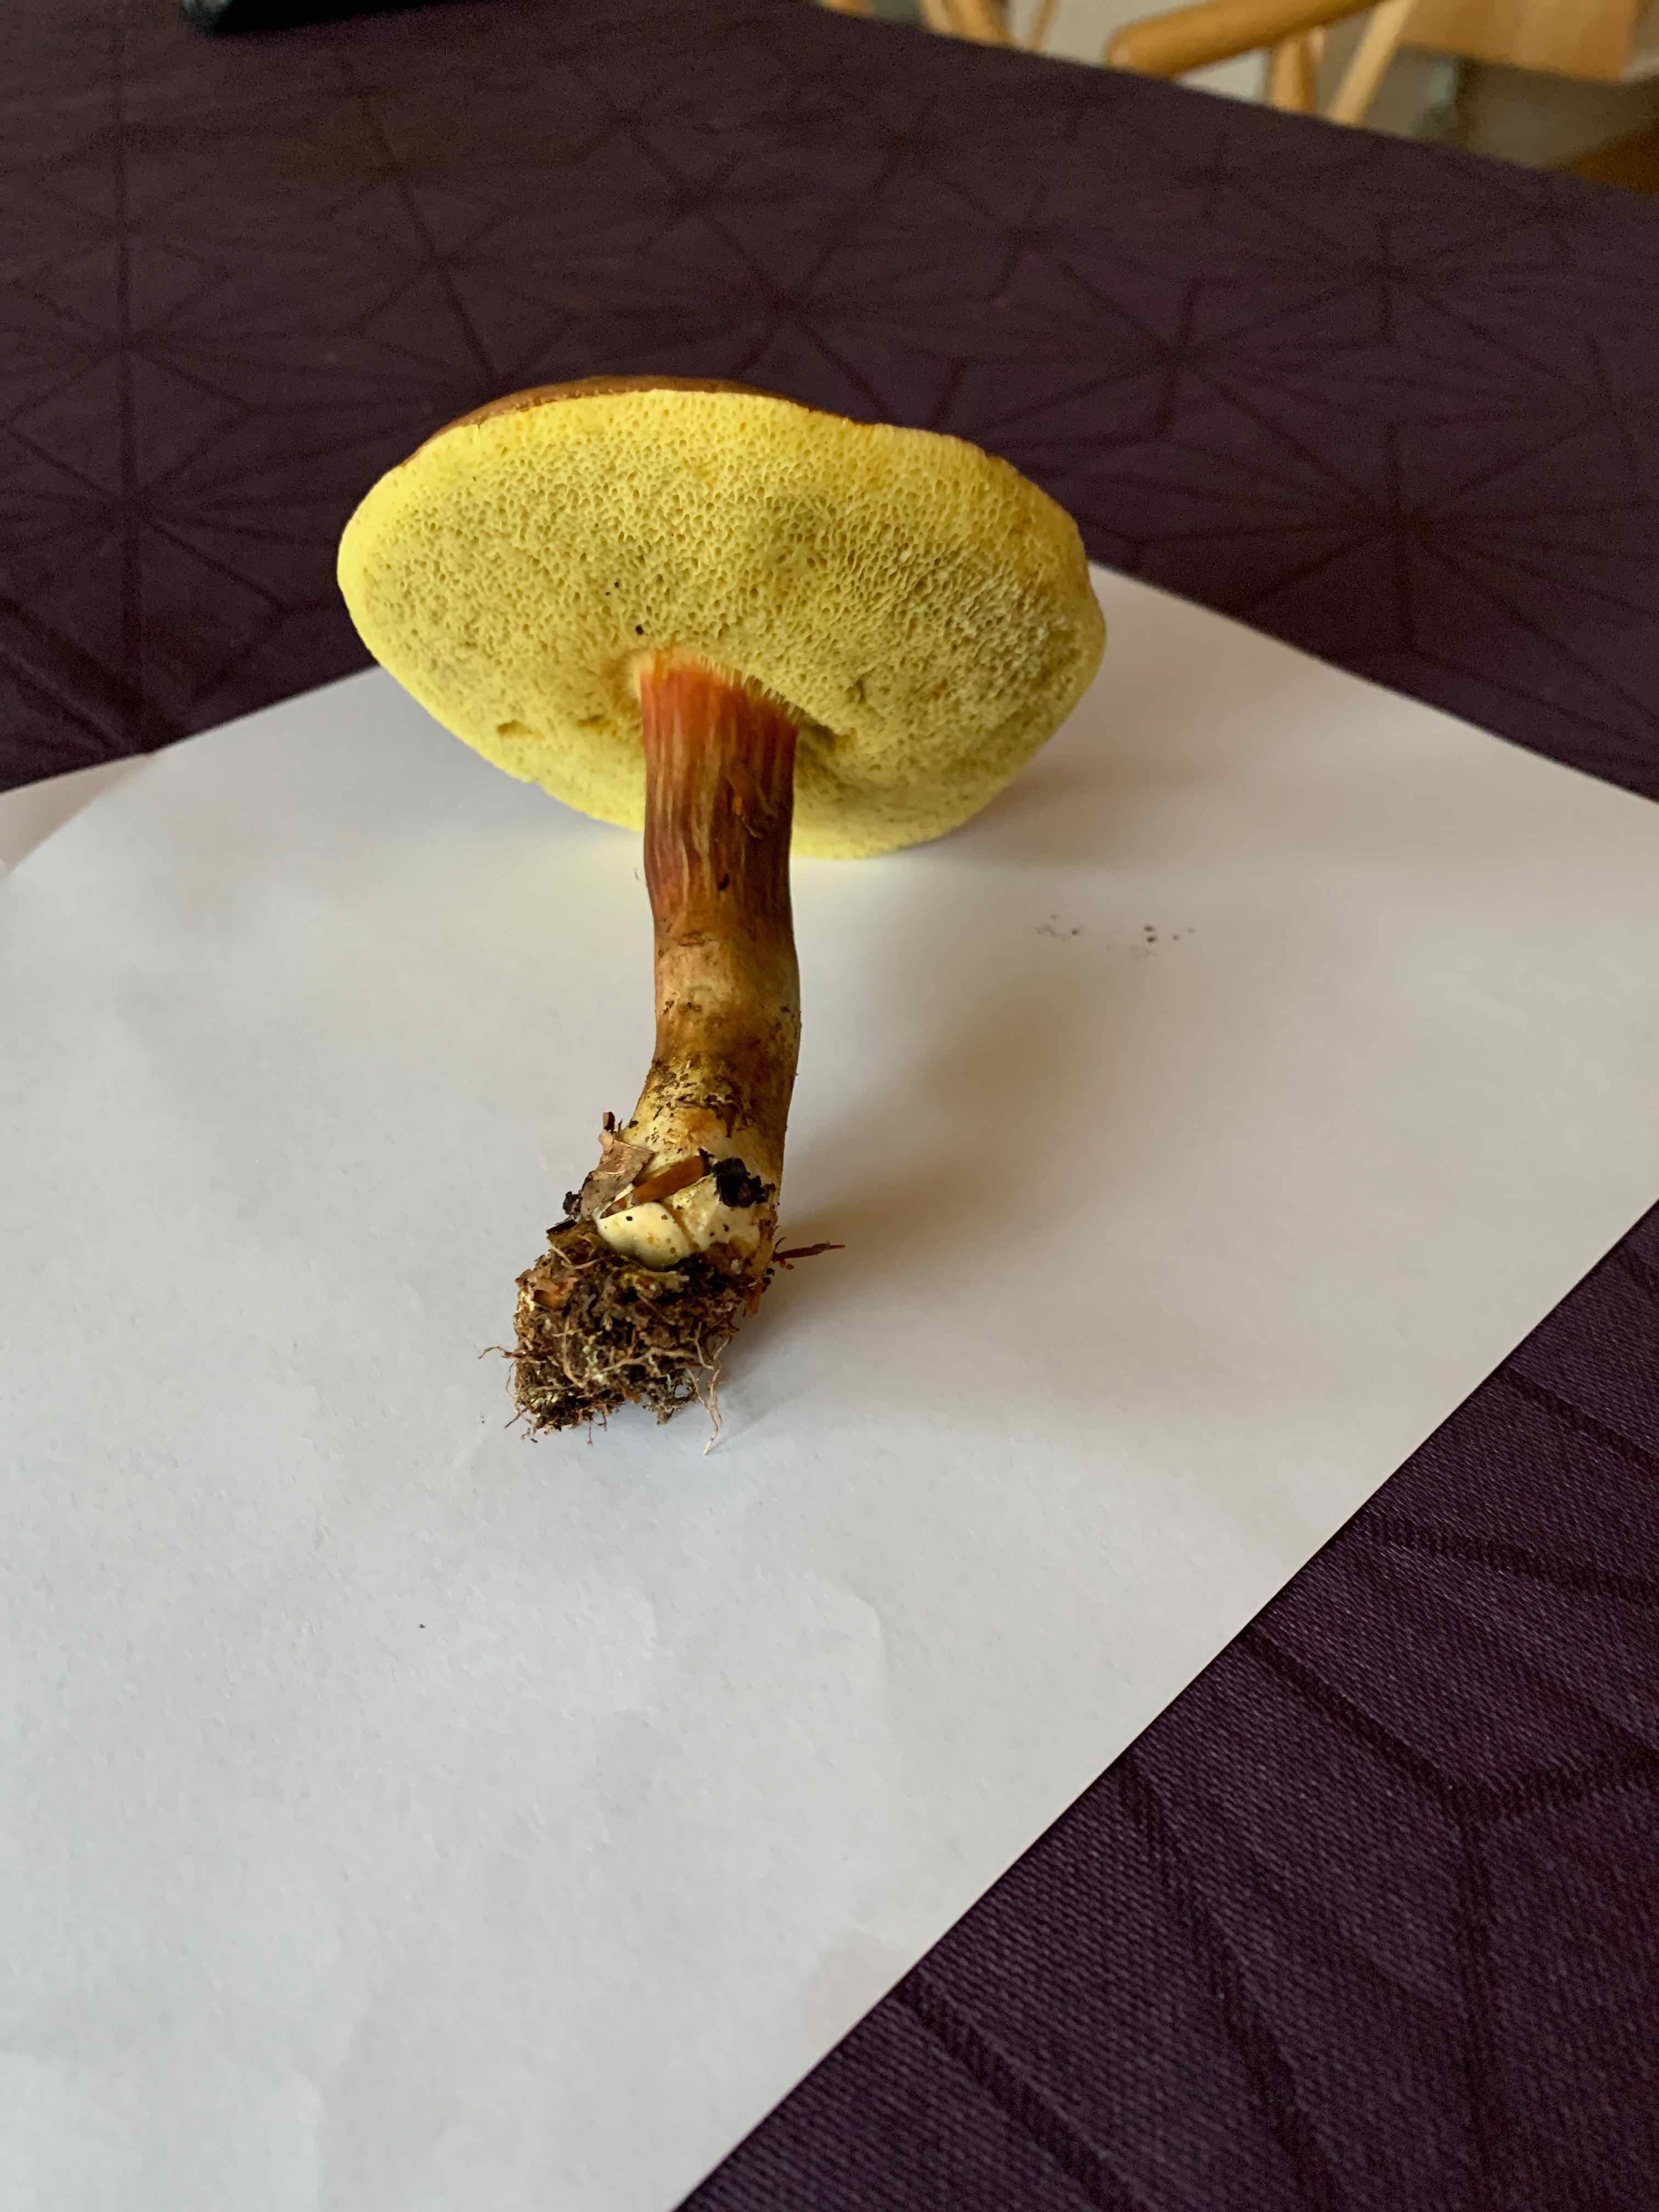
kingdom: Fungi
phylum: Basidiomycota
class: Agaricomycetes
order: Boletales
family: Boletaceae
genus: Xerocomellus
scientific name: Xerocomellus
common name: dværgrørhat
